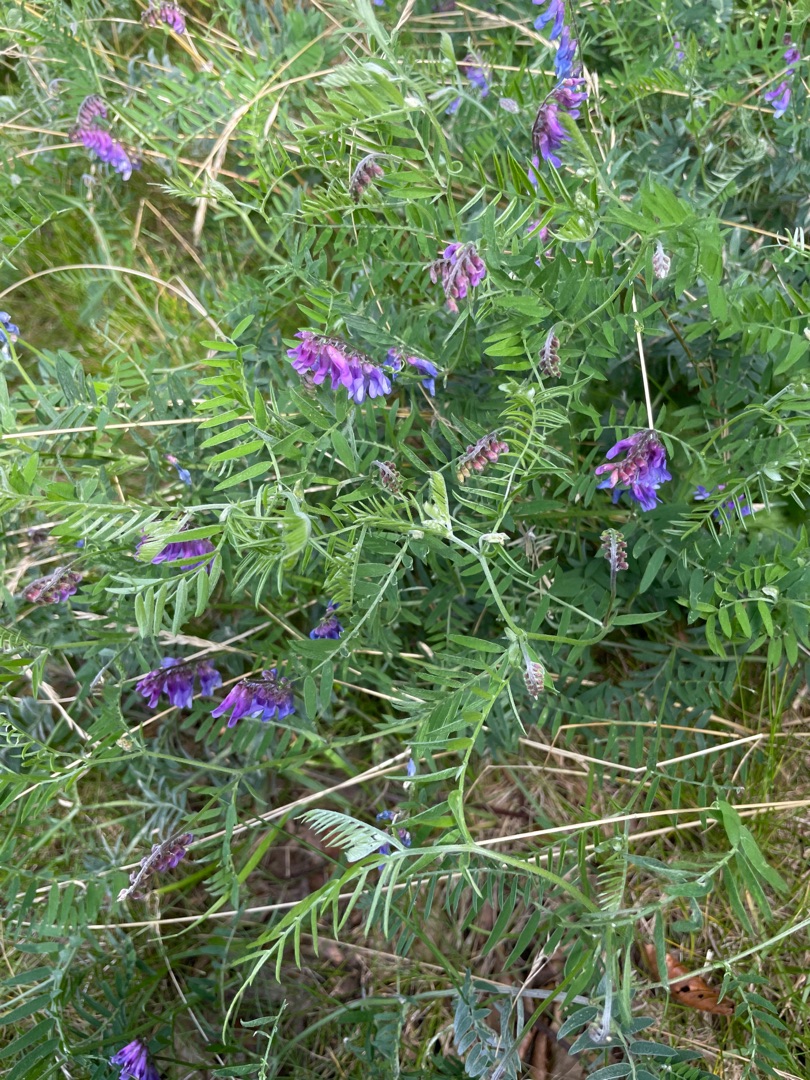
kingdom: Plantae
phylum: Tracheophyta
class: Magnoliopsida
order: Fabales
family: Fabaceae
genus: Vicia
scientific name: Vicia cracca
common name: Muse-vikke
